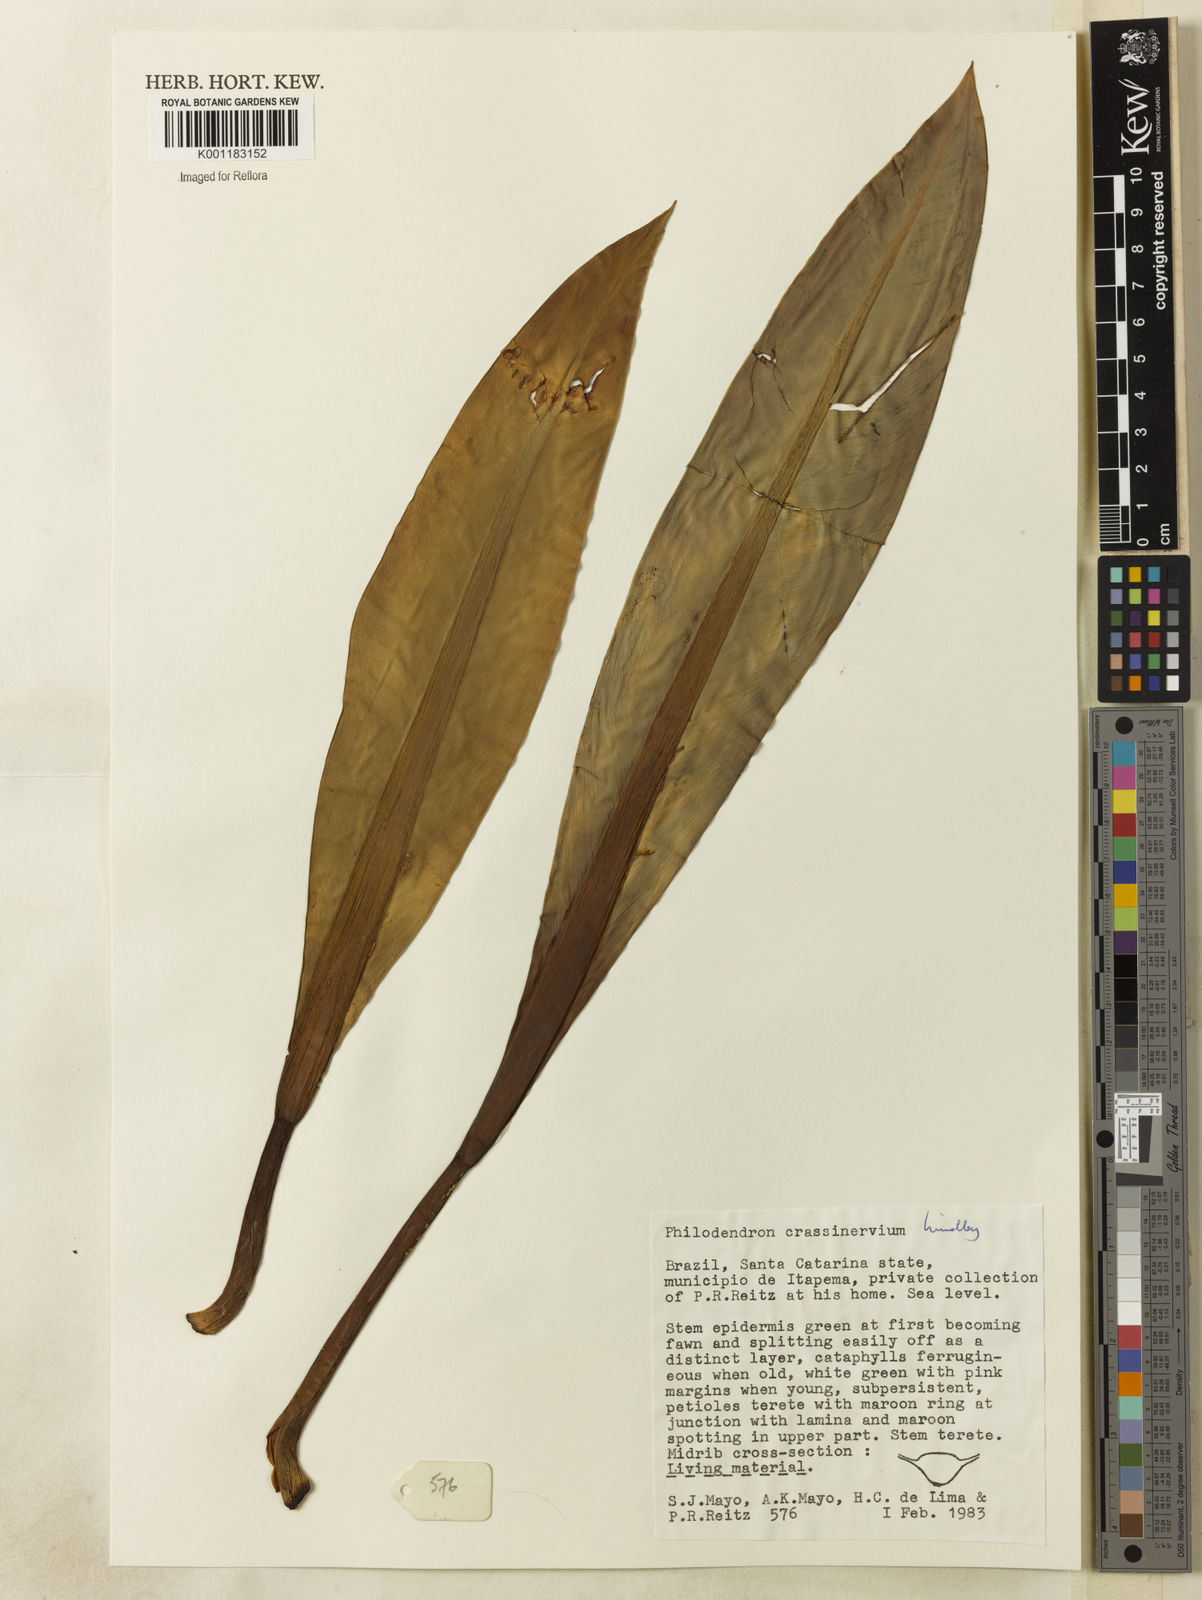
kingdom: Plantae
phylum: Tracheophyta
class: Liliopsida
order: Alismatales
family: Araceae
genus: Philodendron
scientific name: Philodendron crassinervium
